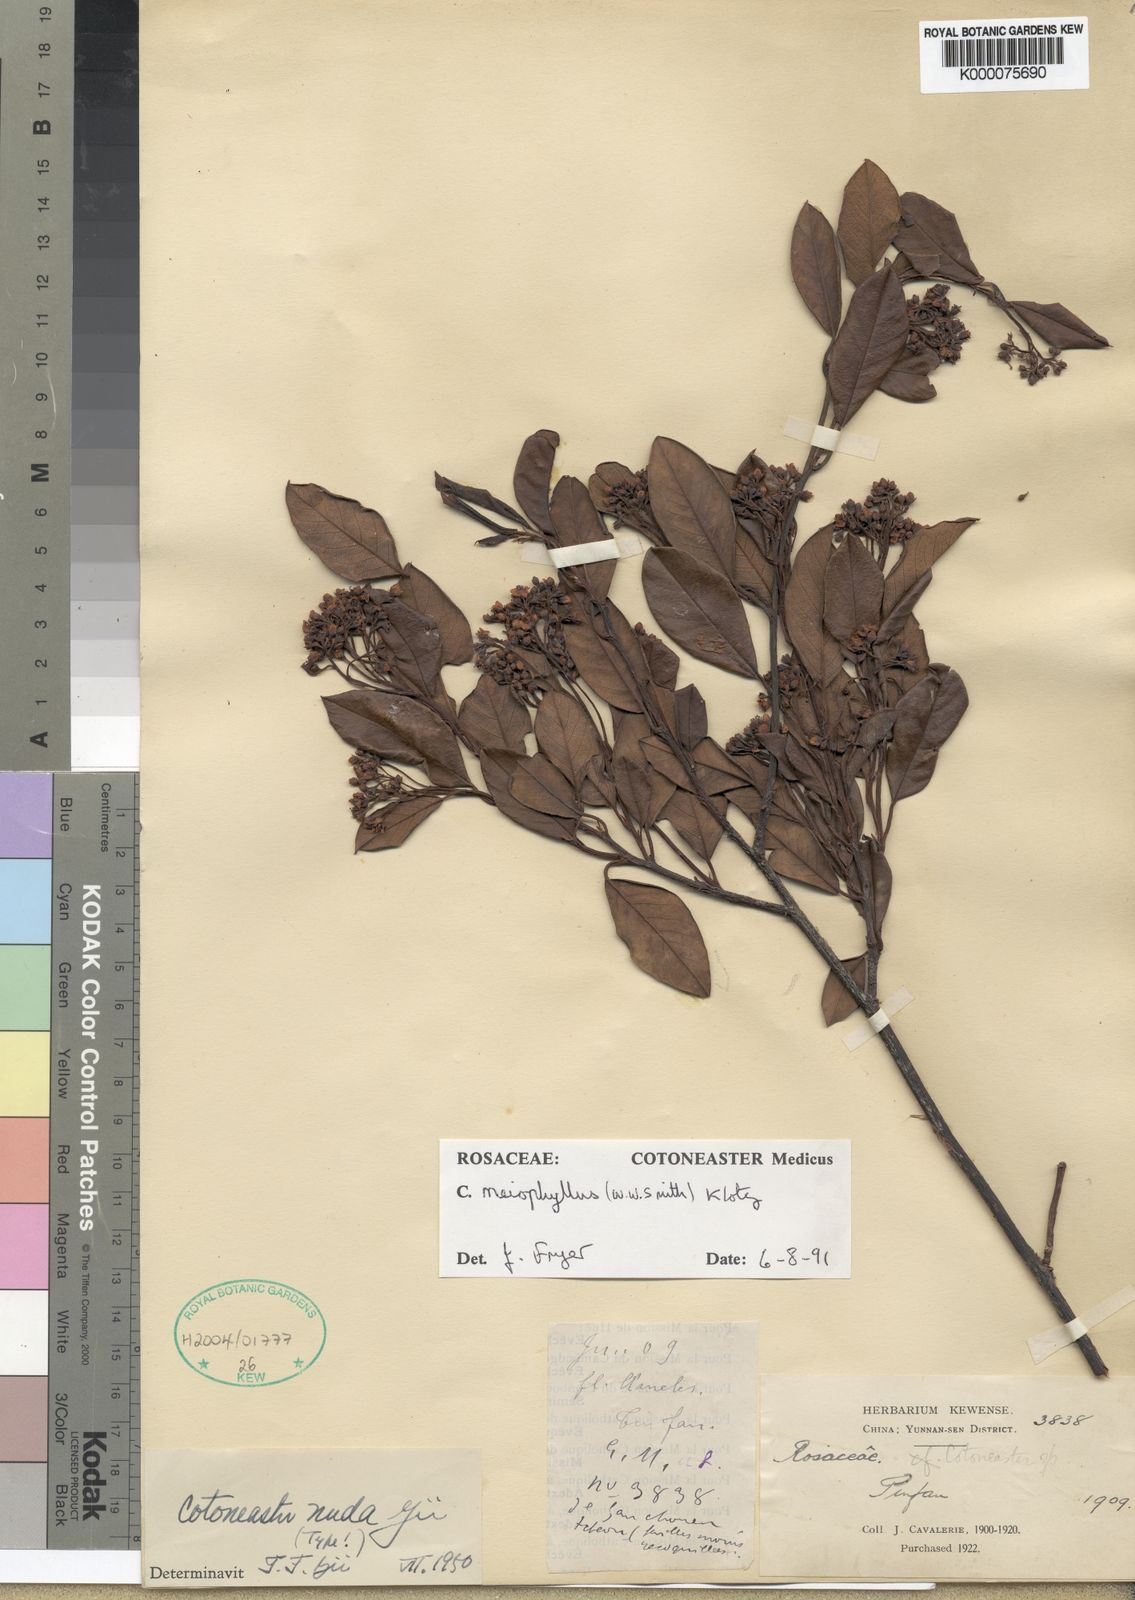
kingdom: Plantae
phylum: Tracheophyta
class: Magnoliopsida
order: Rosales
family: Rosaceae
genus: Cotoneaster
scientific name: Cotoneaster
